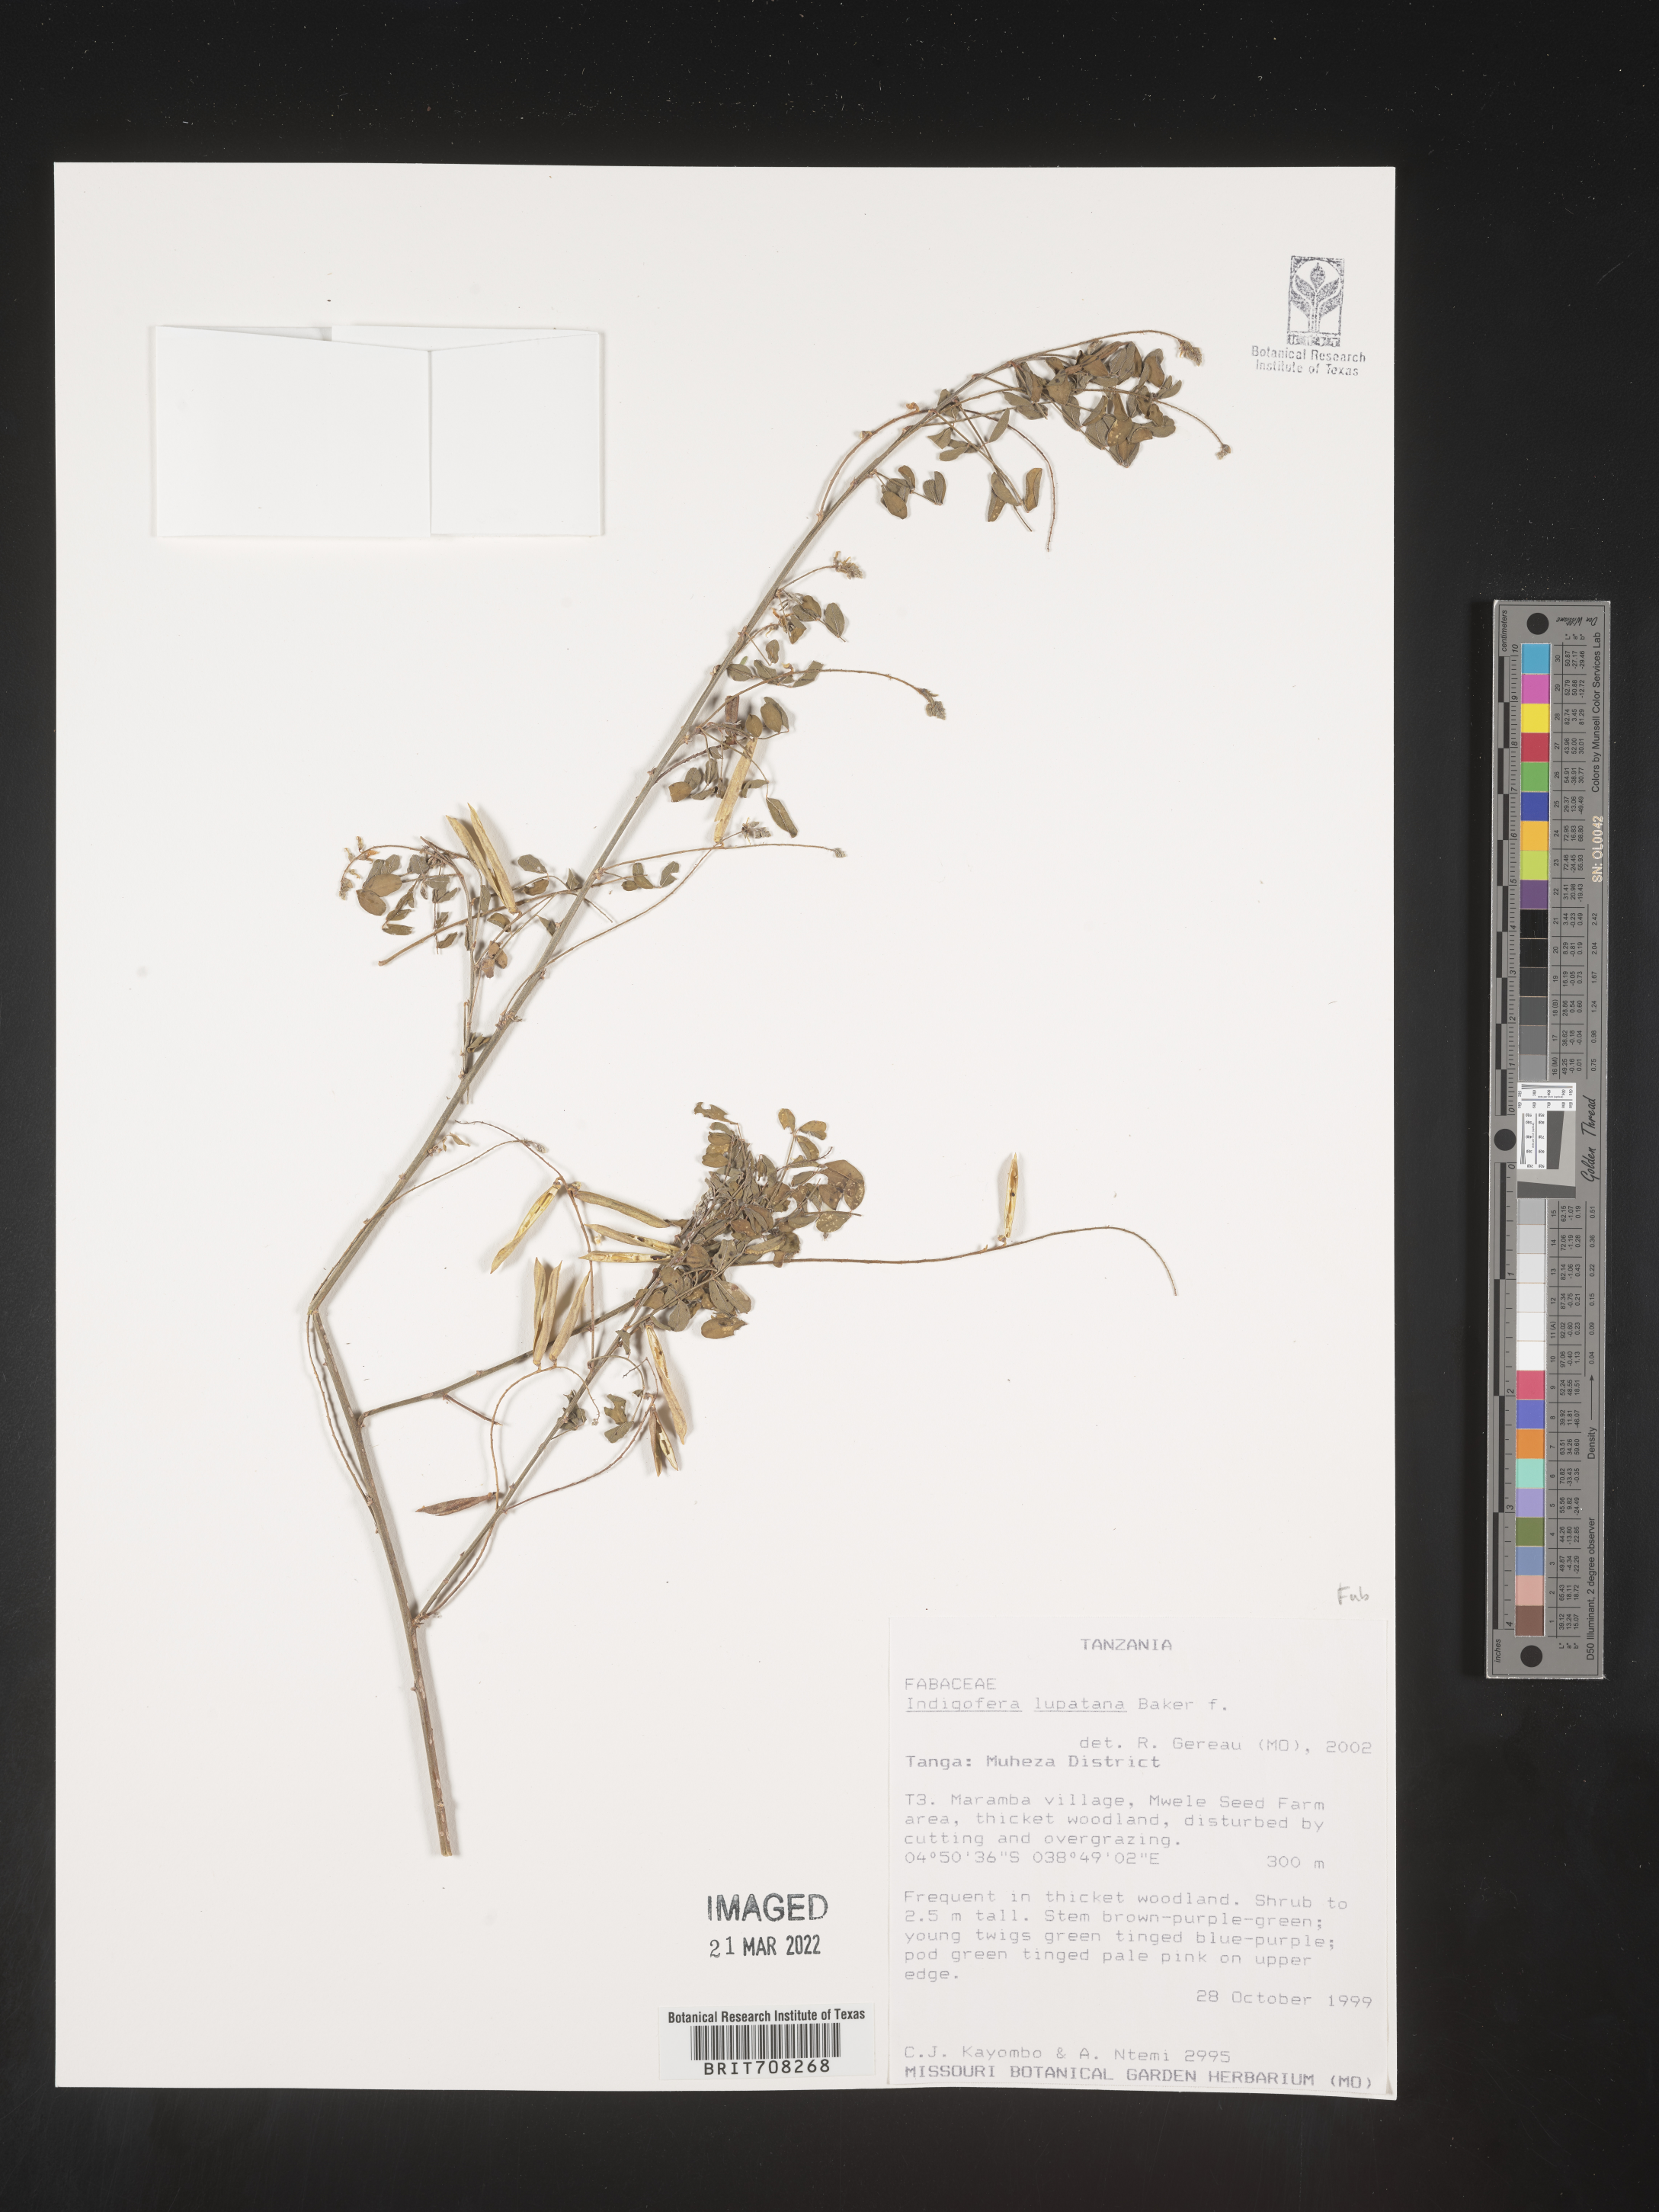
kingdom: Plantae
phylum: Tracheophyta
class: Magnoliopsida
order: Fabales
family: Fabaceae
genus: Indigofera
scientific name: Indigofera
